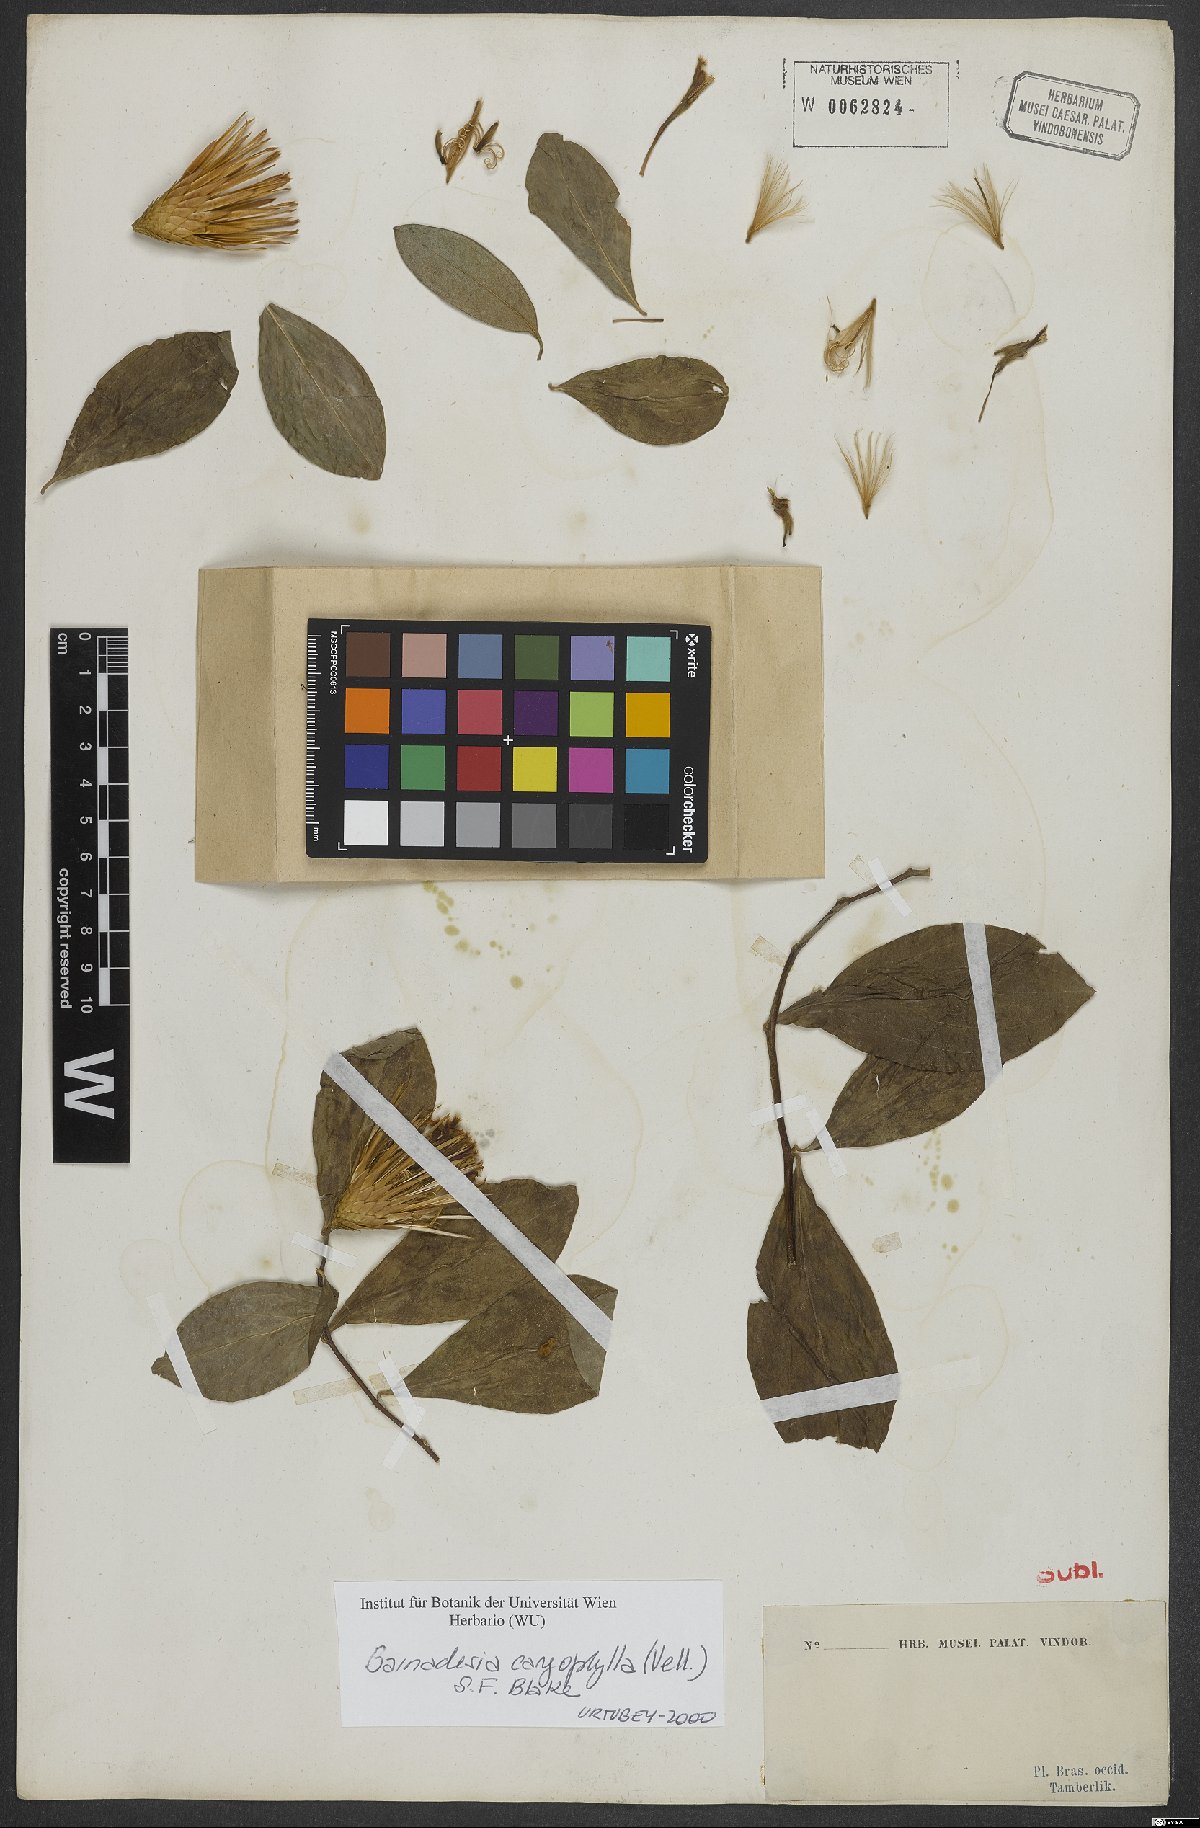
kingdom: Plantae
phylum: Tracheophyta
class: Magnoliopsida
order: Asterales
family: Asteraceae
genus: Barnadesia
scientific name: Barnadesia caryophylla
